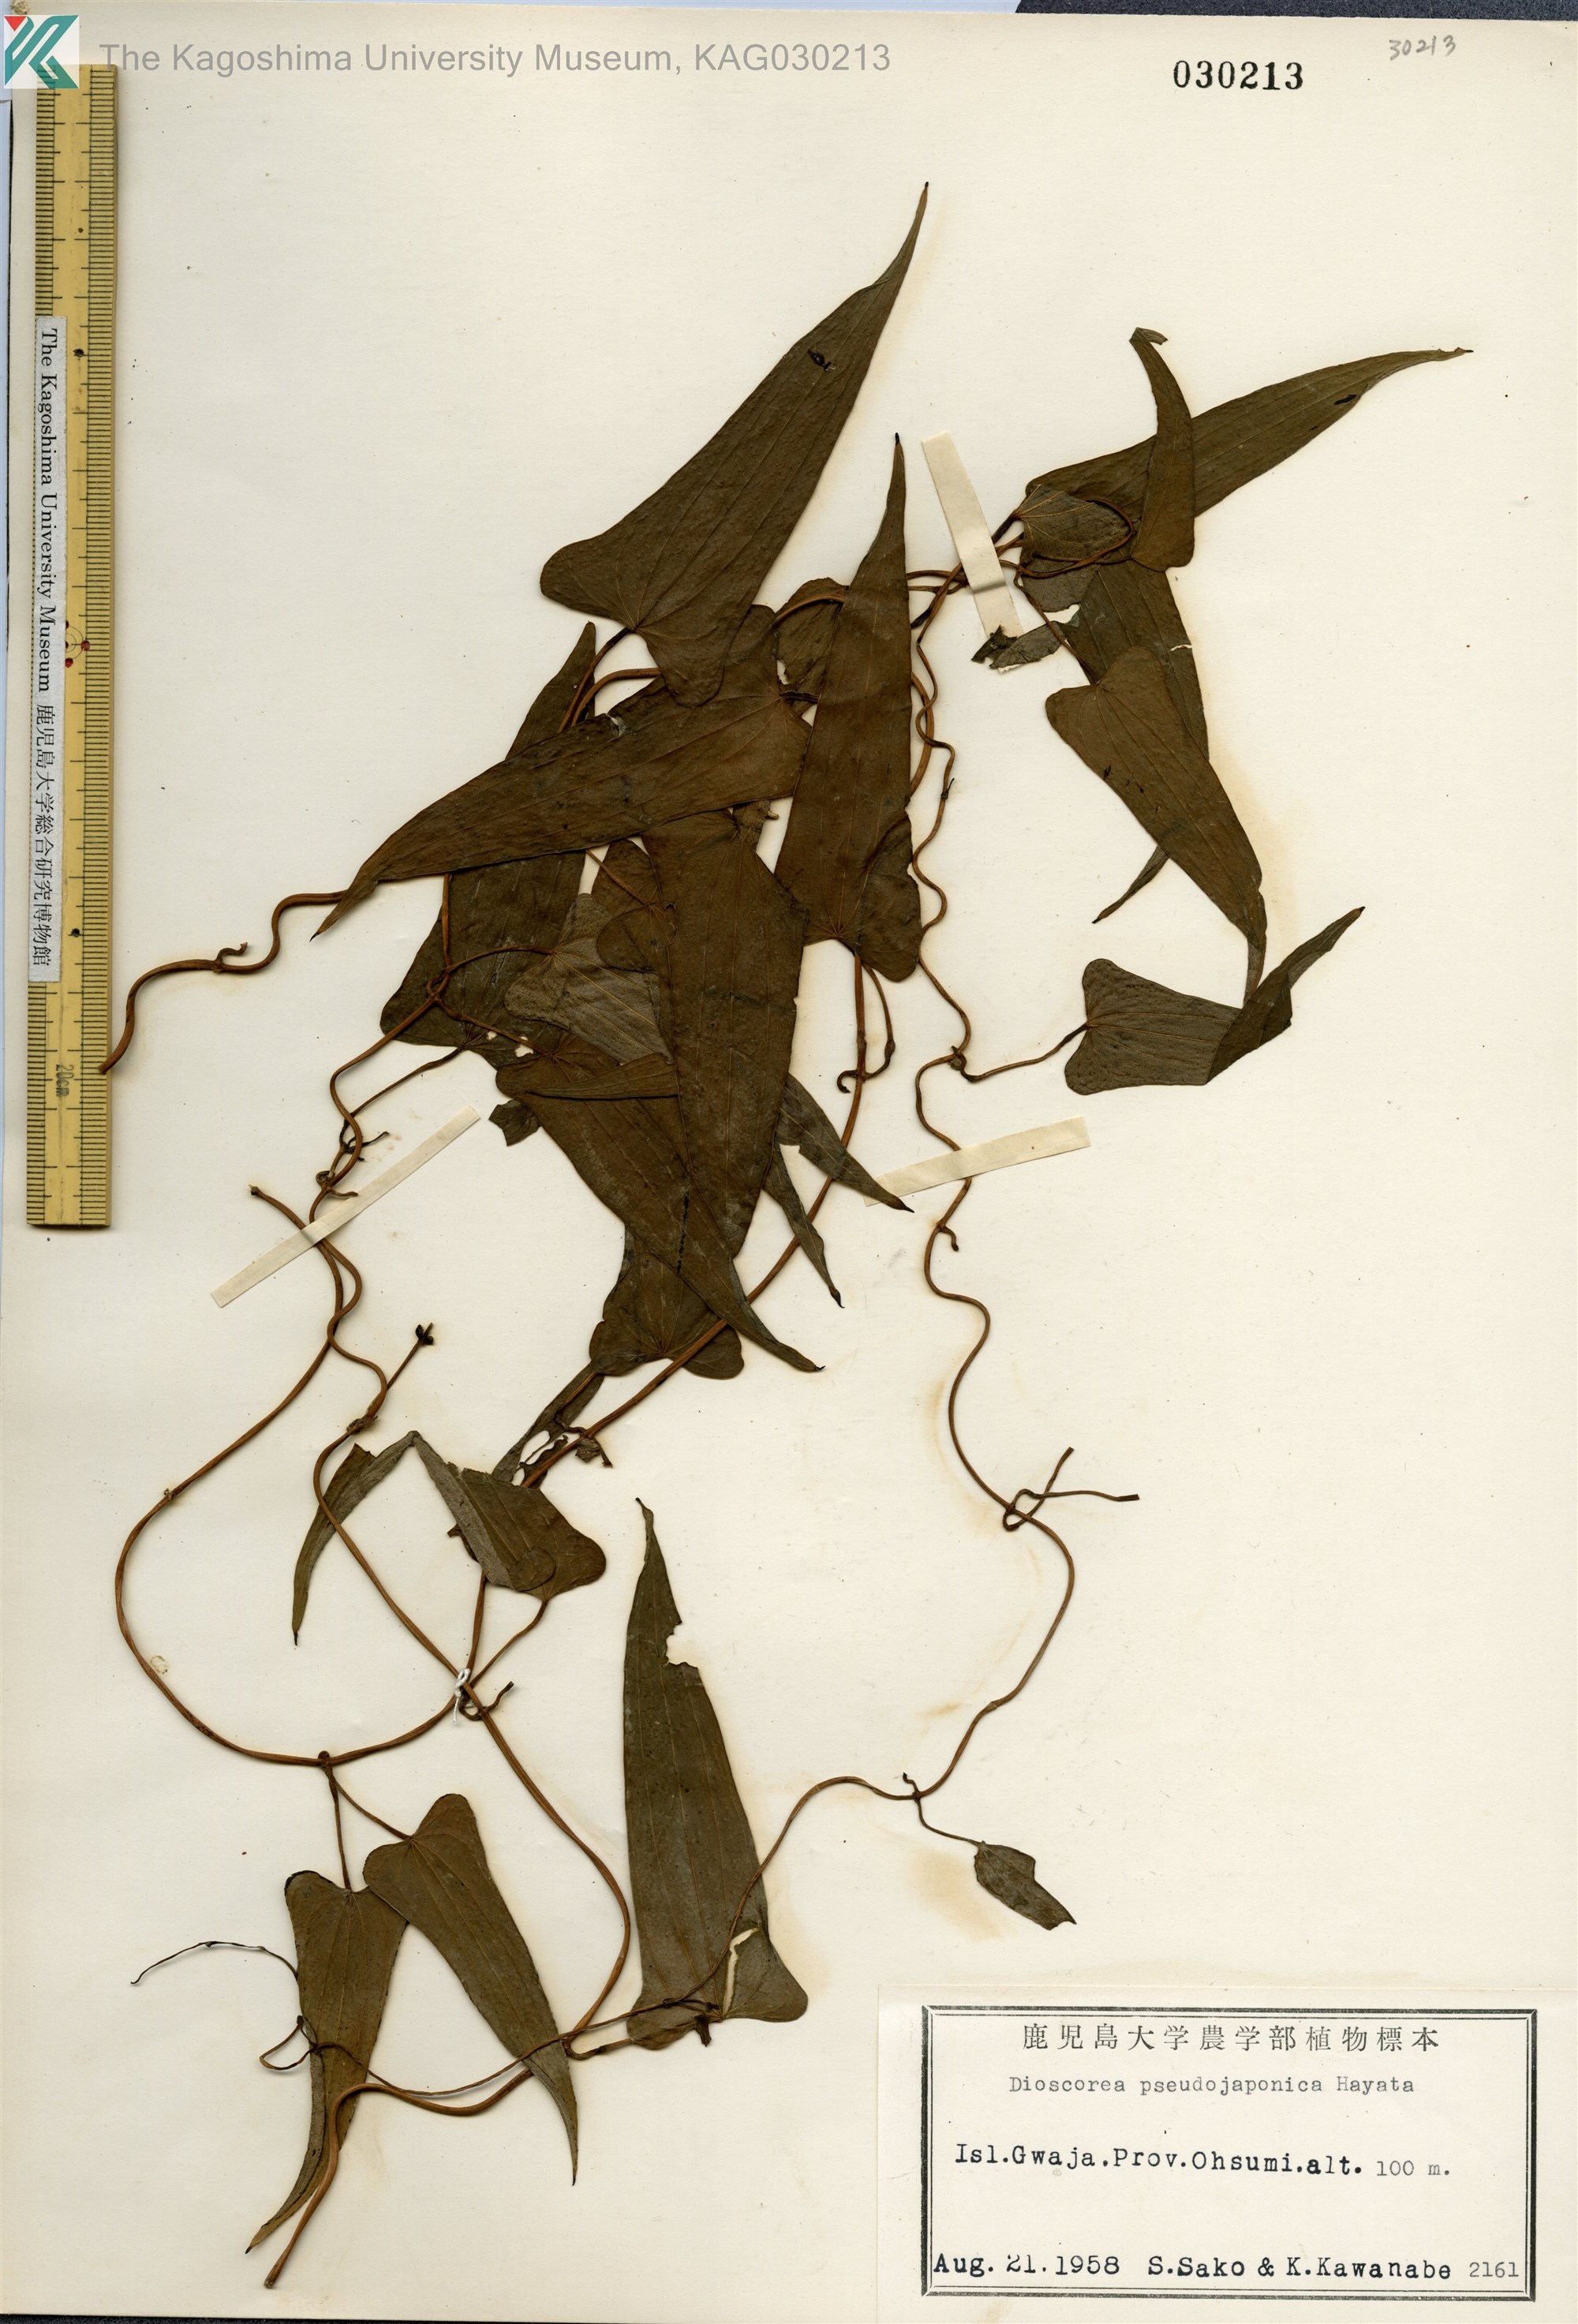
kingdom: Plantae
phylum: Tracheophyta
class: Liliopsida
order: Dioscoreales
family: Dioscoreaceae
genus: Dioscorea
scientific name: Dioscorea pseudojaponica
